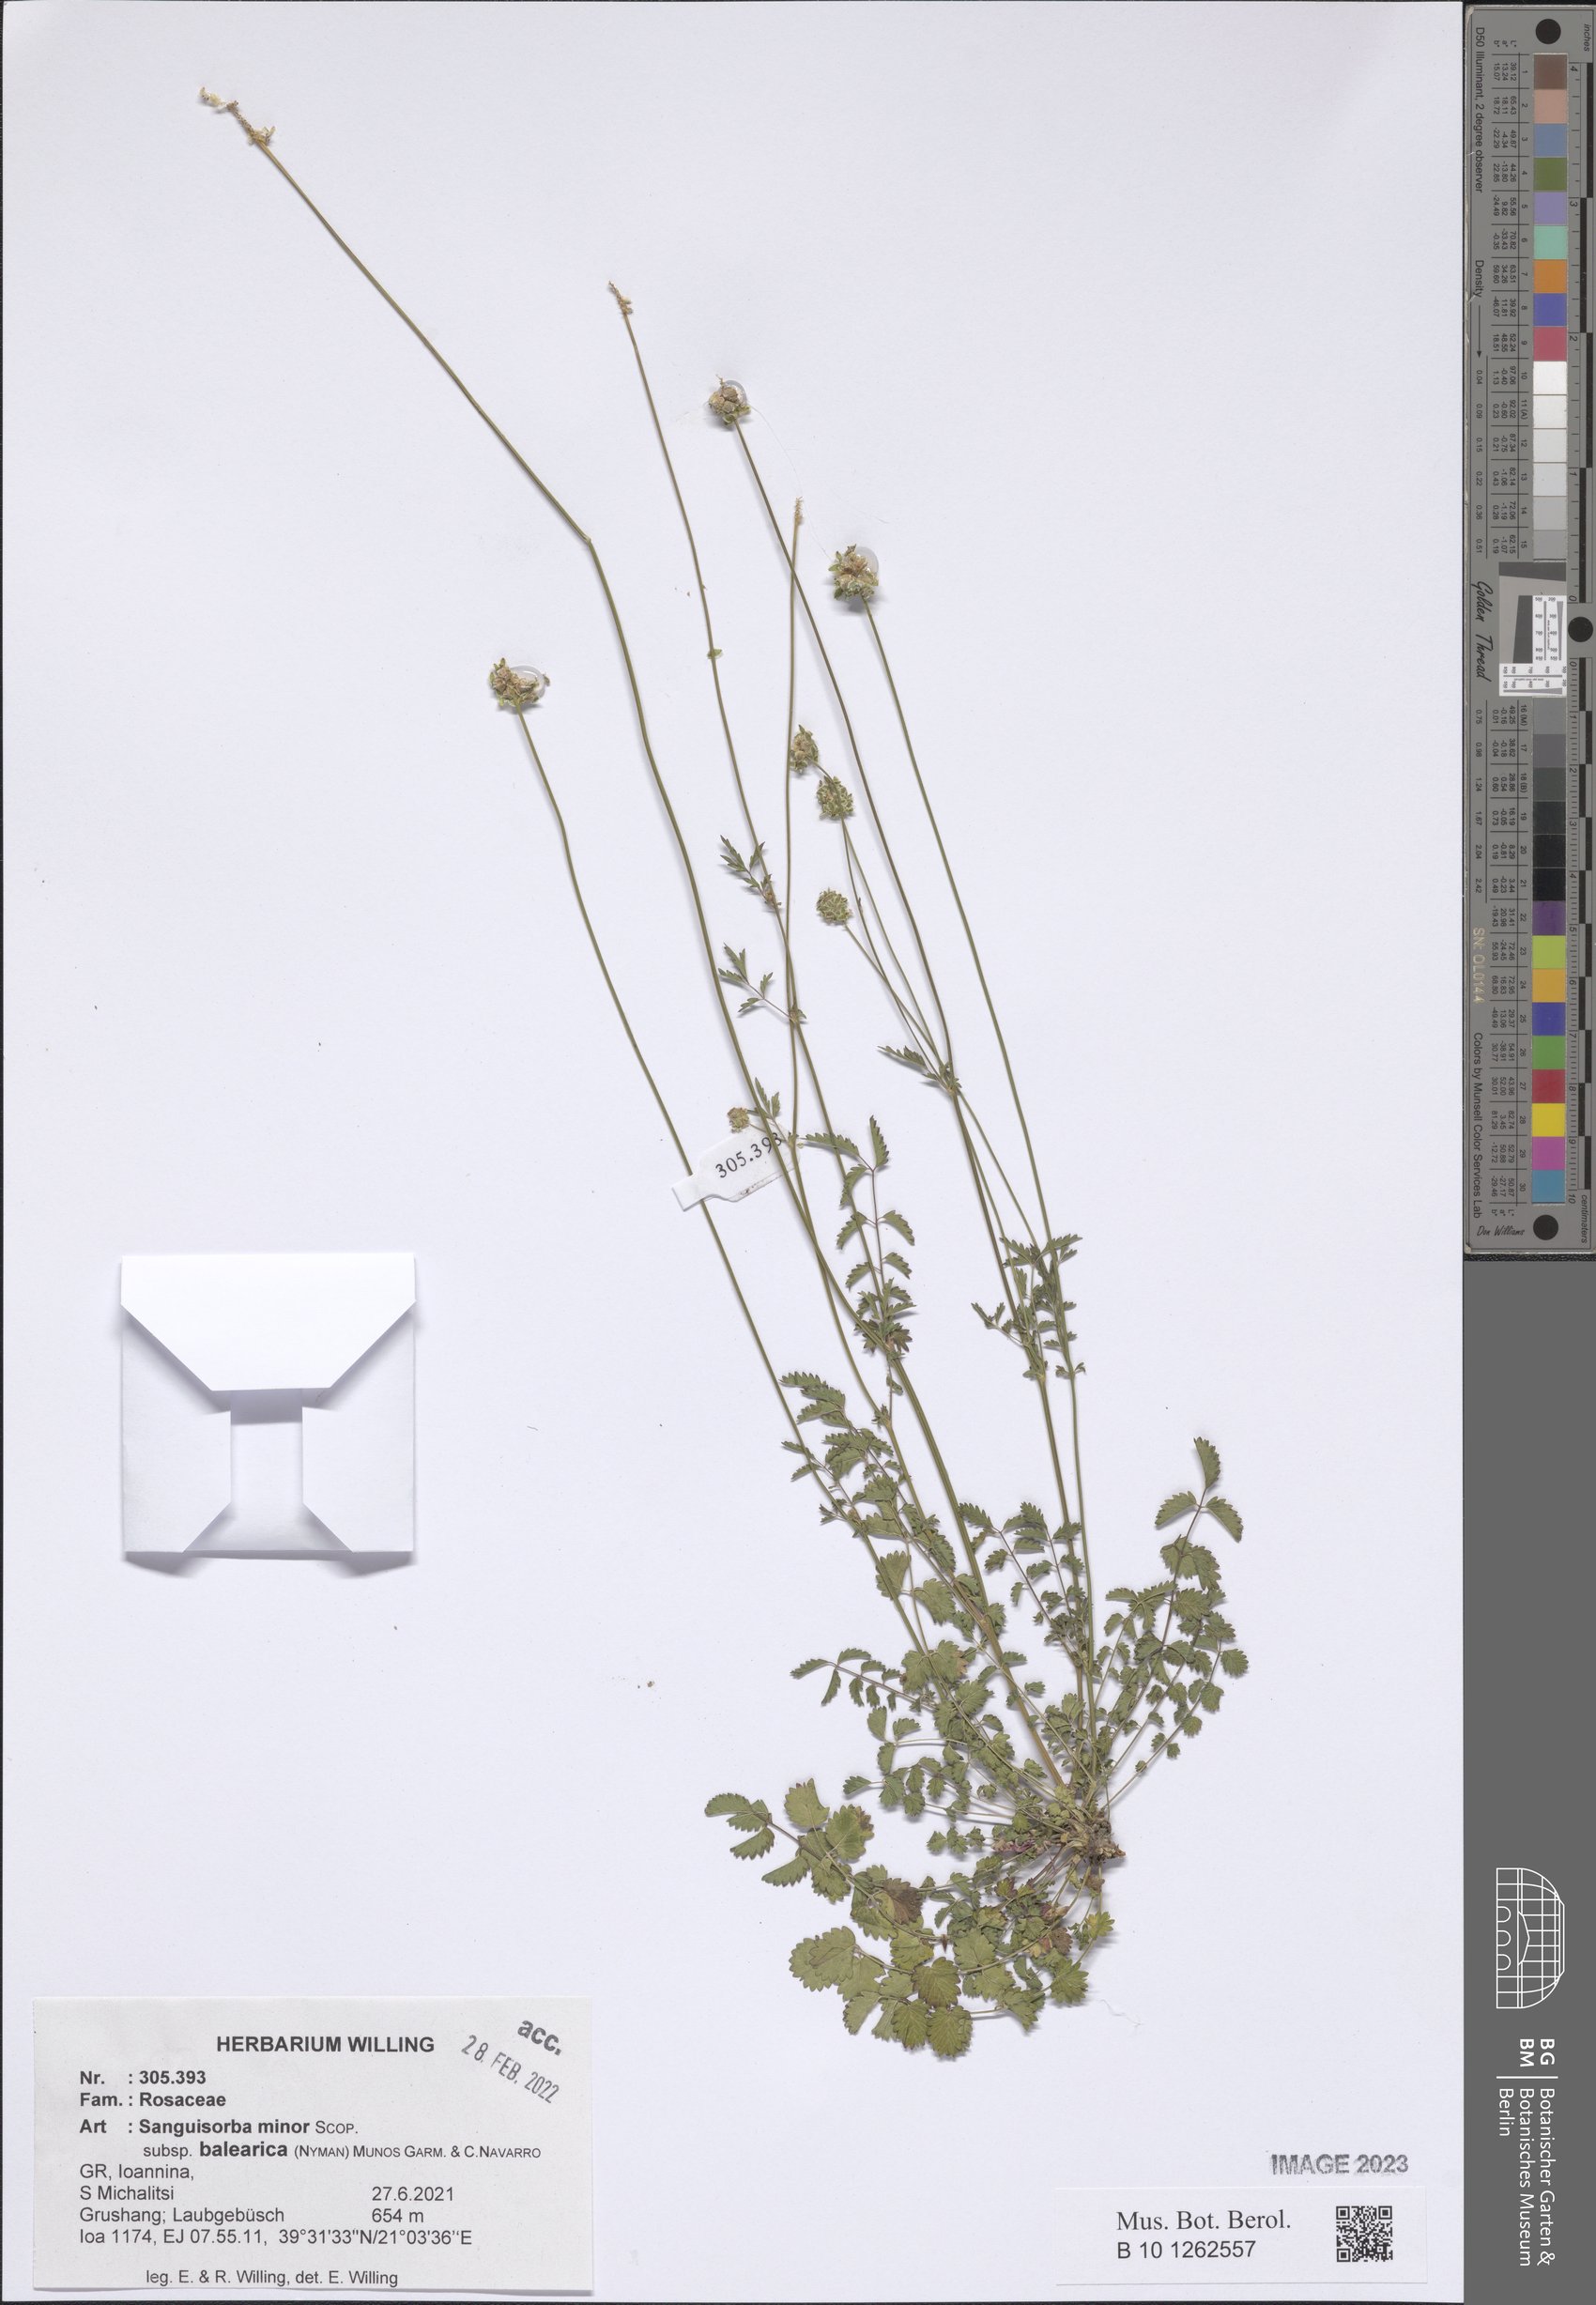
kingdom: Plantae
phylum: Tracheophyta
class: Magnoliopsida
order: Rosales
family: Rosaceae
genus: Poterium
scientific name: Poterium sanguisorba
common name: Salad burnet
